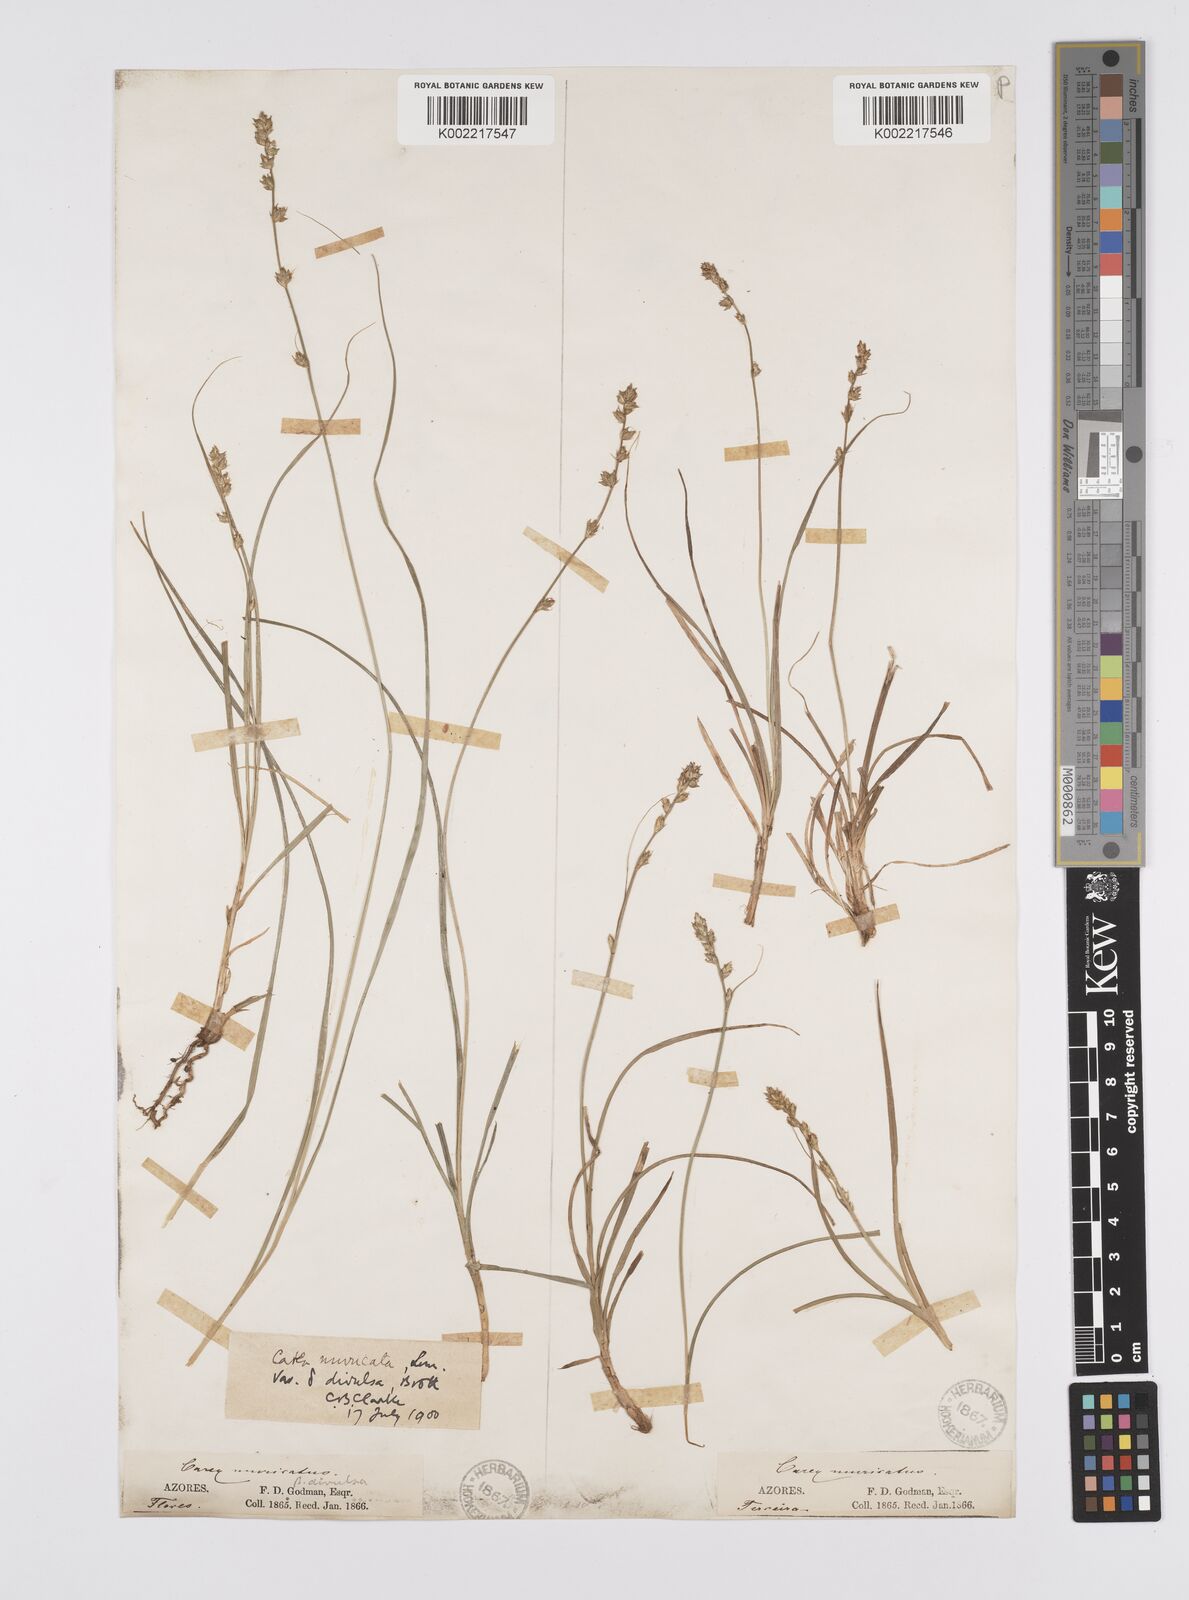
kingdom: Plantae
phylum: Tracheophyta
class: Liliopsida
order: Poales
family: Cyperaceae
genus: Carex
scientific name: Carex divulsa
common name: Grassland sedge
